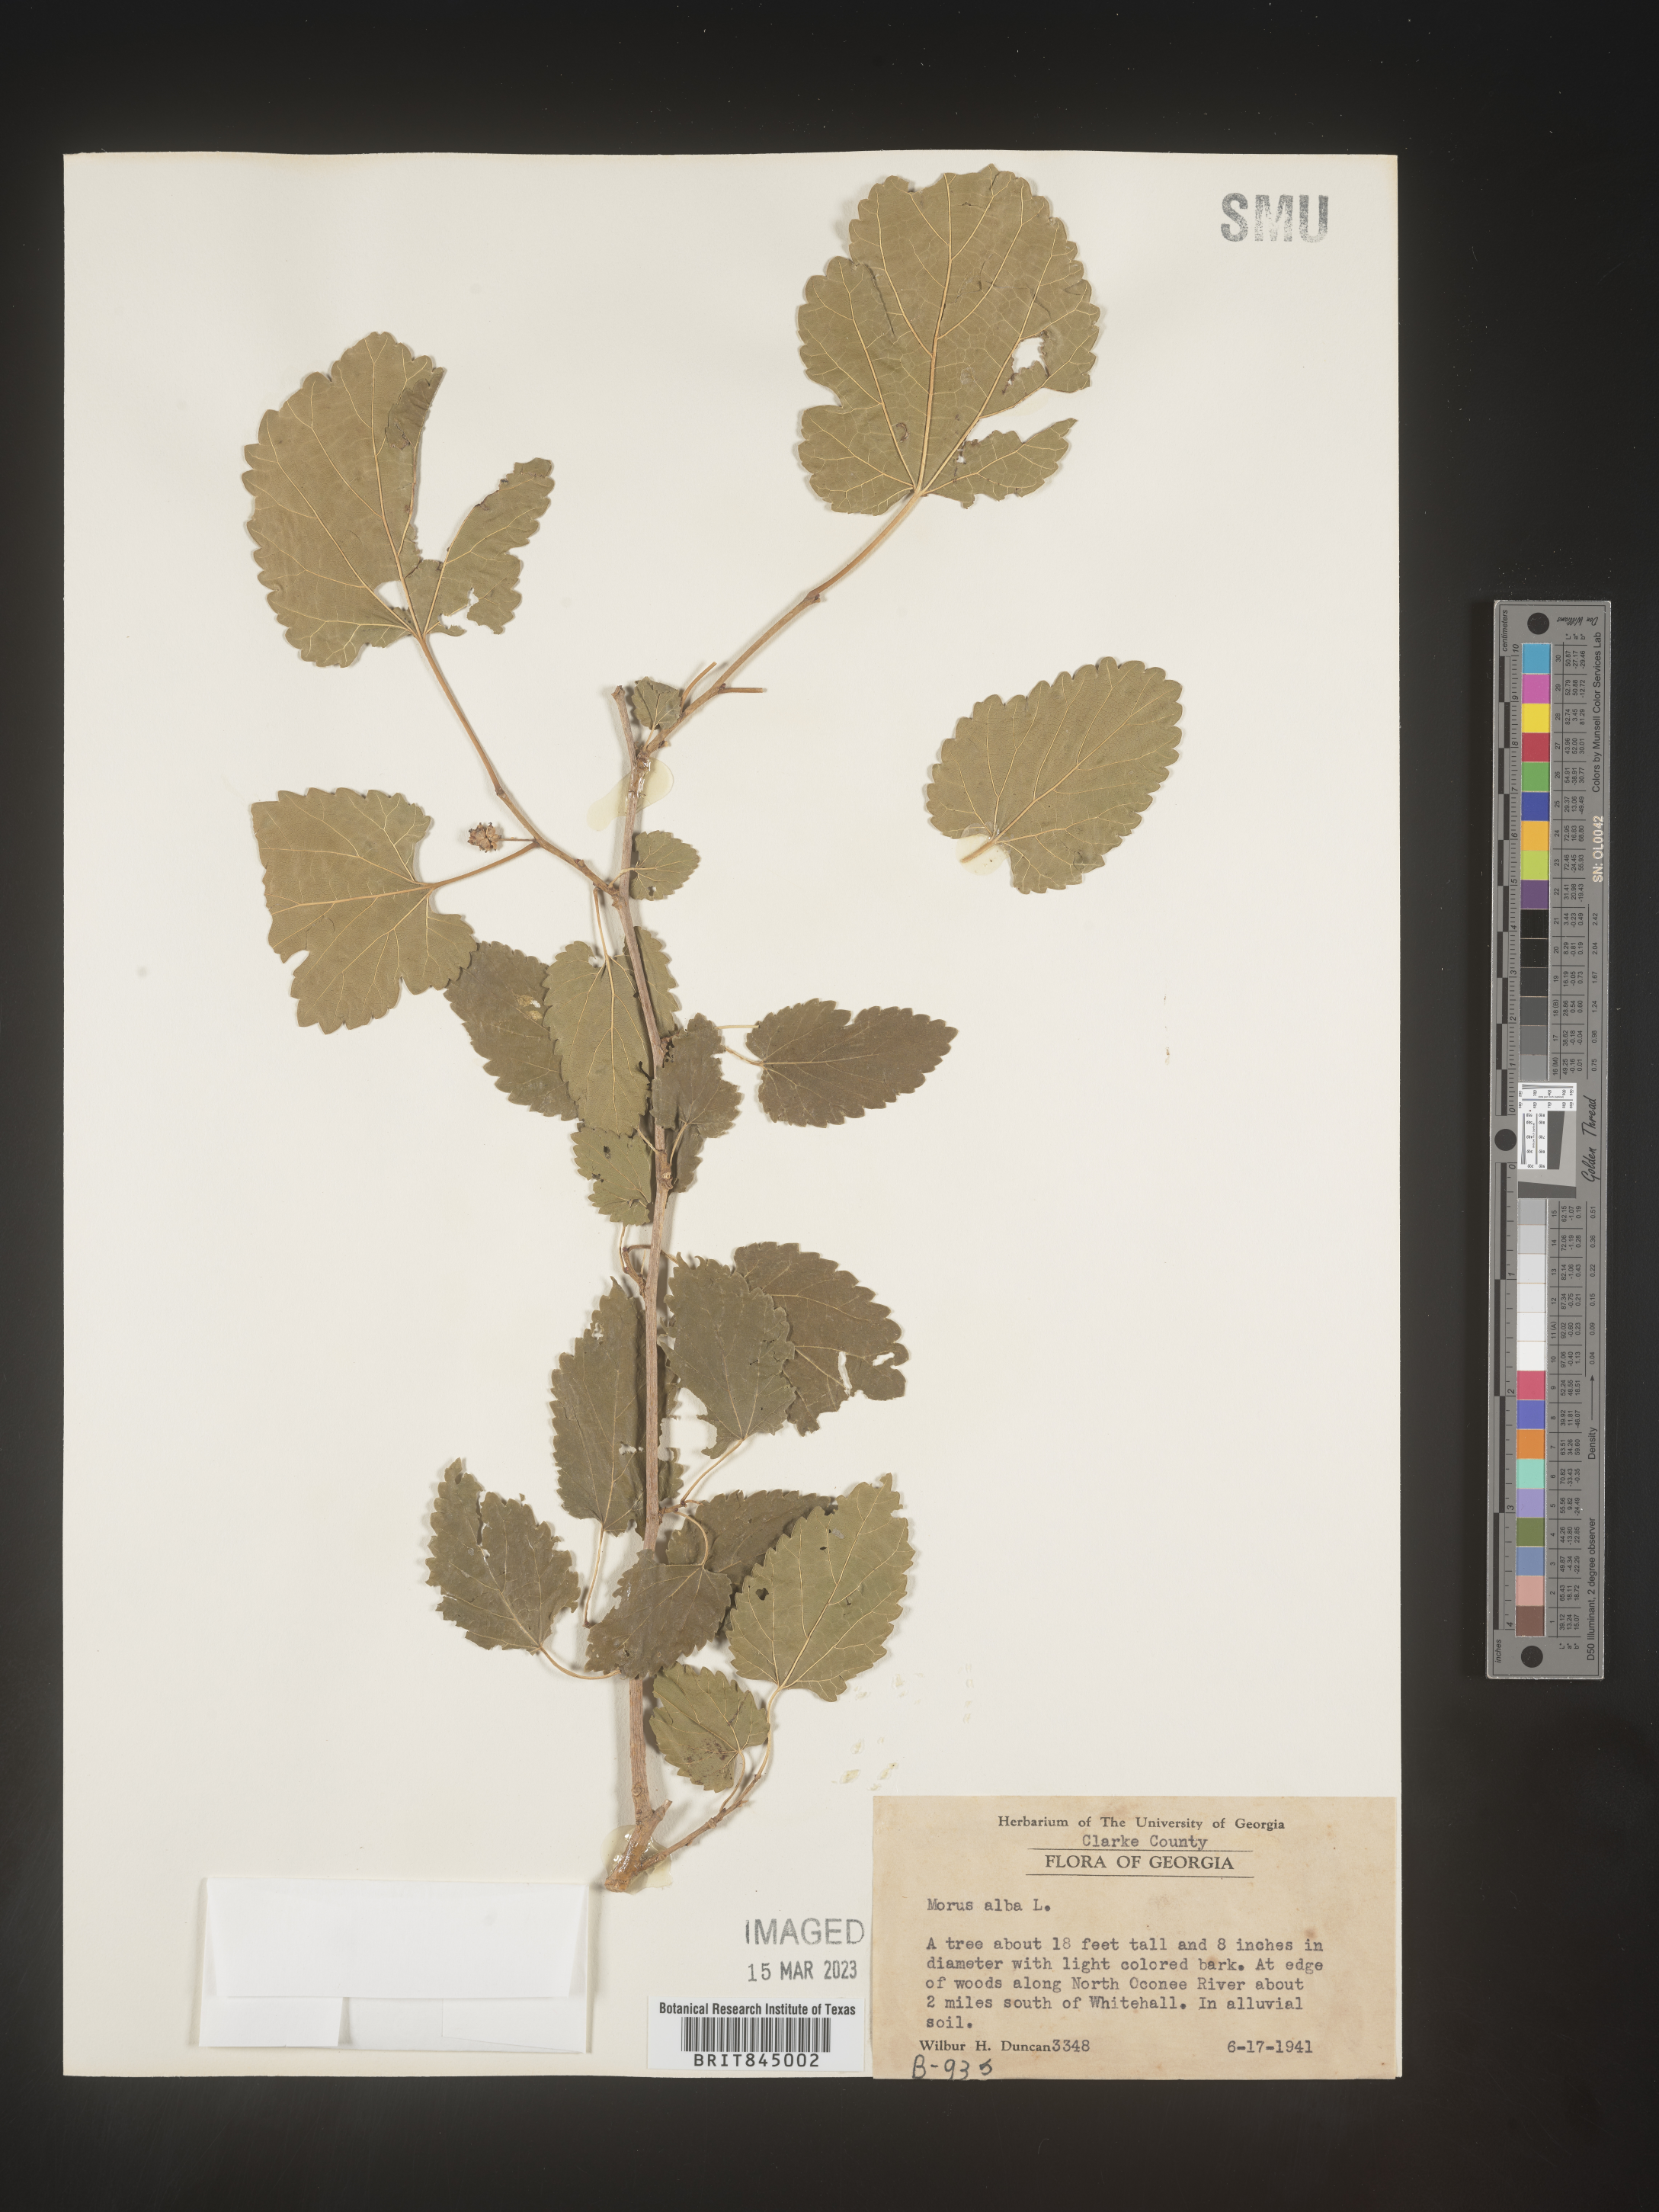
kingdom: Plantae
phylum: Tracheophyta
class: Magnoliopsida
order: Rosales
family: Moraceae
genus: Morus
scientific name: Morus alba
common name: White mulberry
